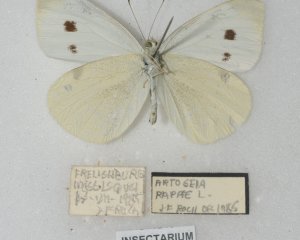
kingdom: Animalia
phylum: Arthropoda
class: Insecta
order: Lepidoptera
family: Pieridae
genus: Pieris
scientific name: Pieris rapae
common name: Cabbage White
